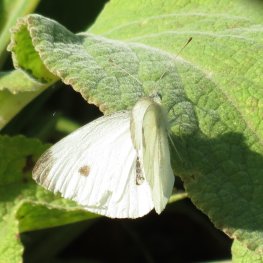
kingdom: Animalia
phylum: Arthropoda
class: Insecta
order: Lepidoptera
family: Pieridae
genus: Pieris
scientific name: Pieris rapae
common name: Cabbage White
